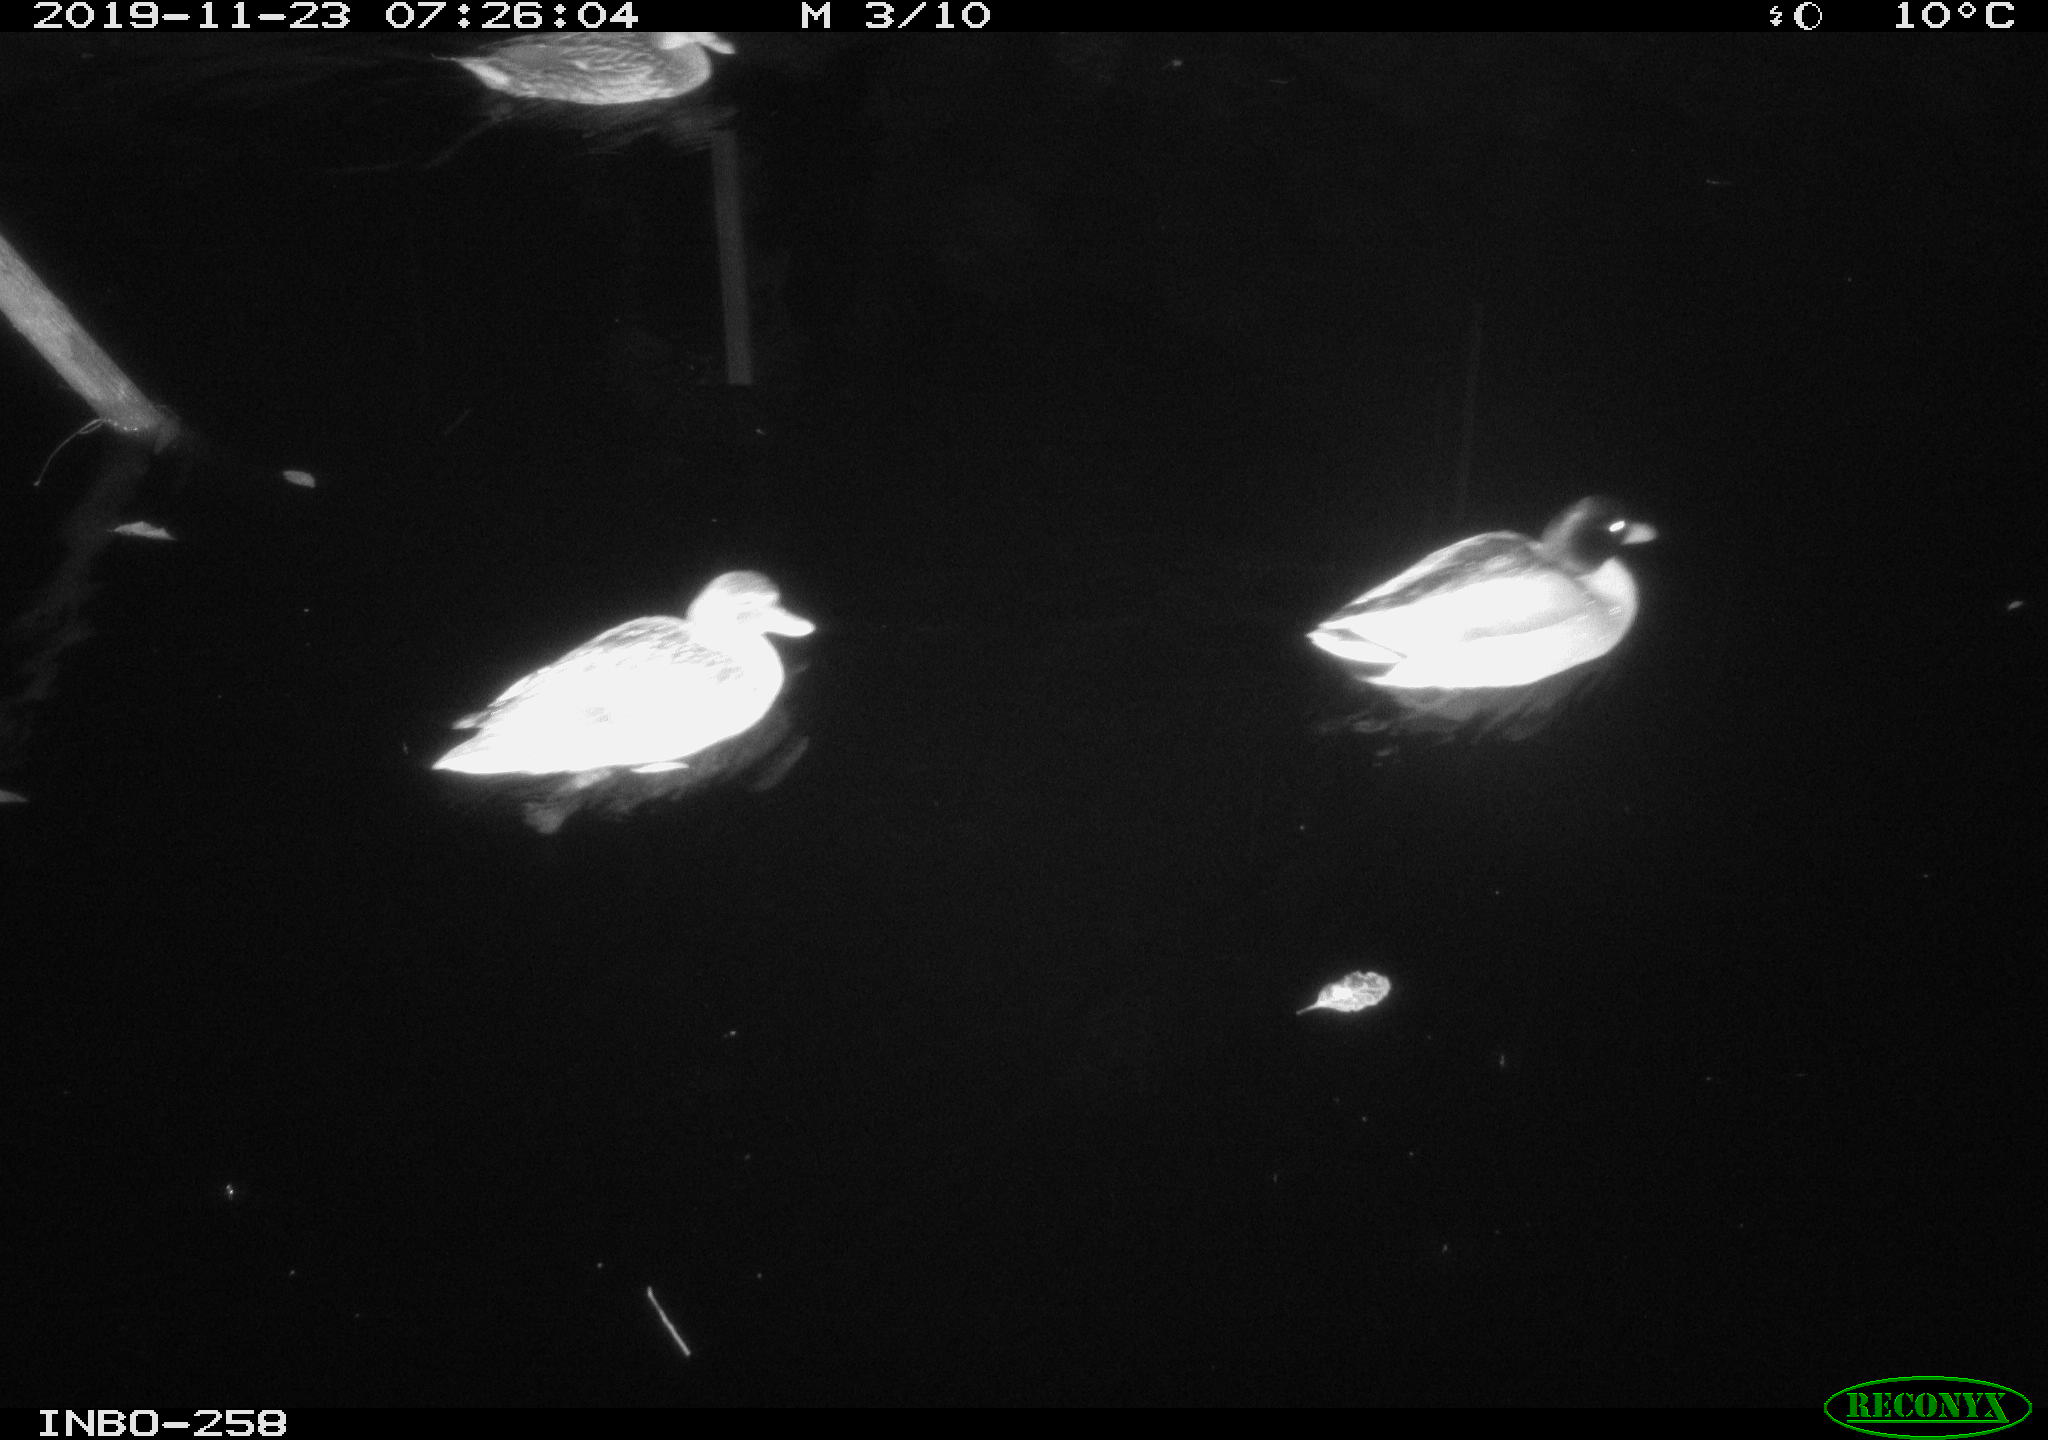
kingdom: Animalia
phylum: Chordata
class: Aves
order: Anseriformes
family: Anatidae
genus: Anas
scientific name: Anas platyrhynchos
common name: Mallard
